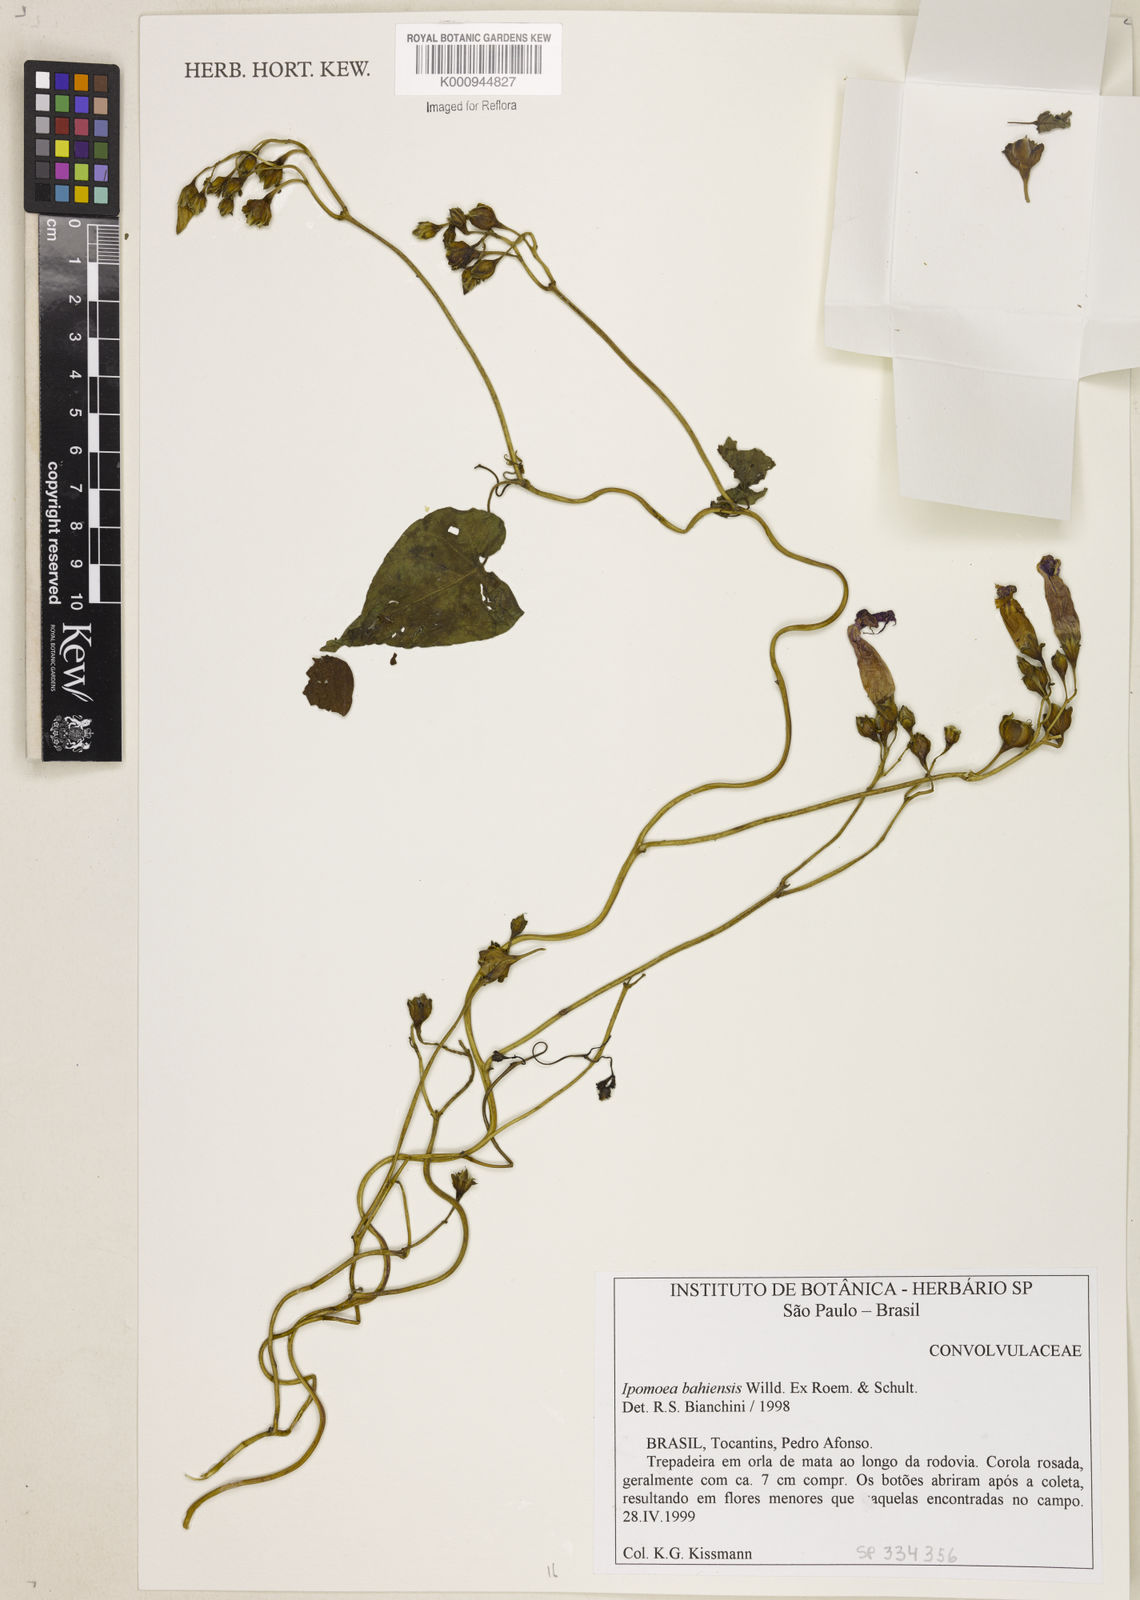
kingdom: Plantae
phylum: Tracheophyta
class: Magnoliopsida
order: Solanales
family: Convolvulaceae
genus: Ipomoea
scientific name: Ipomoea
